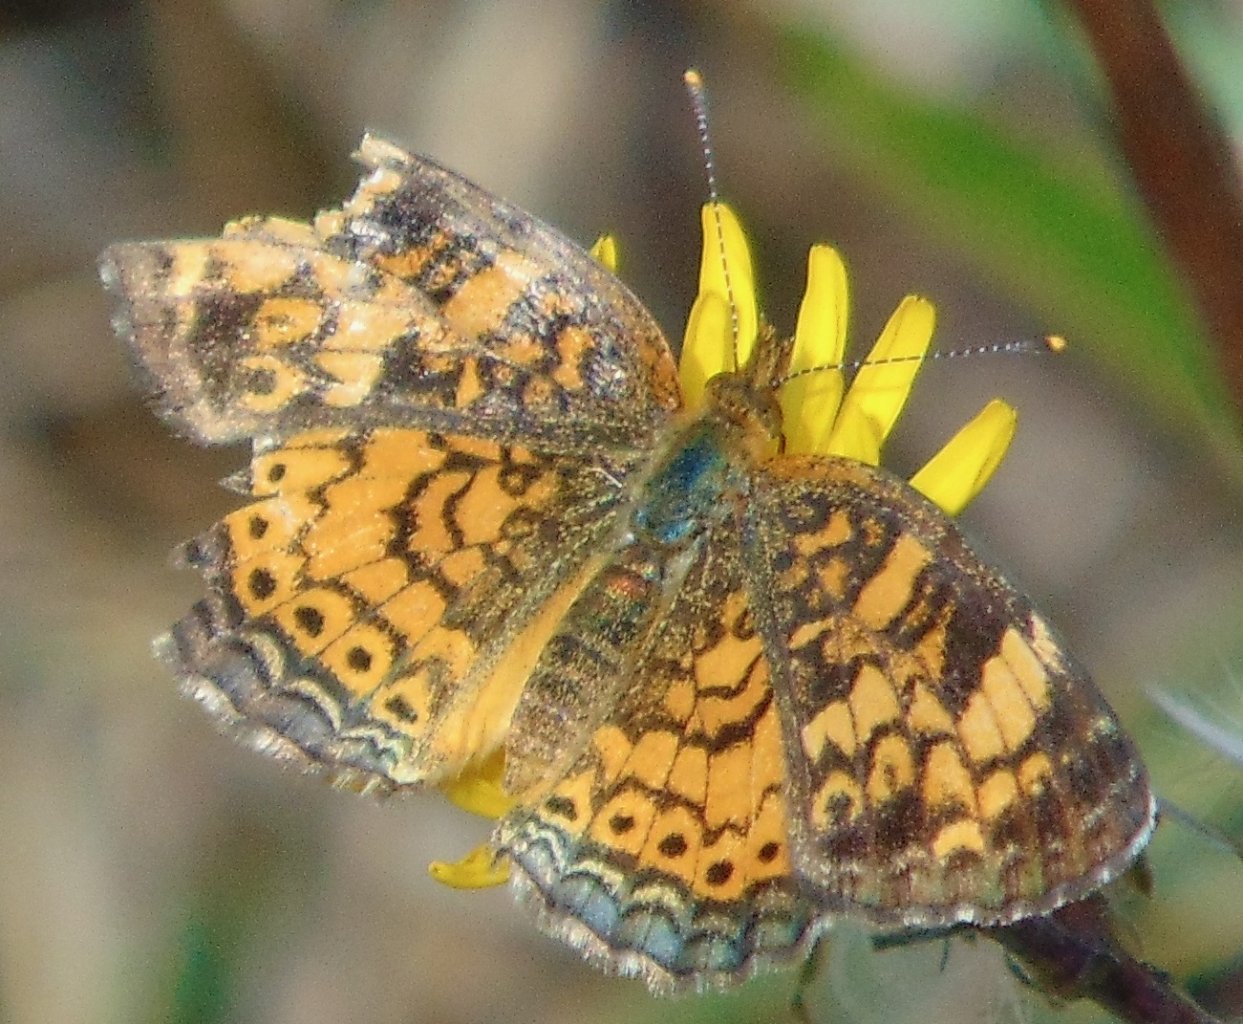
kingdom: Animalia
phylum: Arthropoda
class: Insecta
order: Lepidoptera
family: Nymphalidae
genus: Phyciodes
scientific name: Phyciodes tharos
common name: Pearl Crescent
